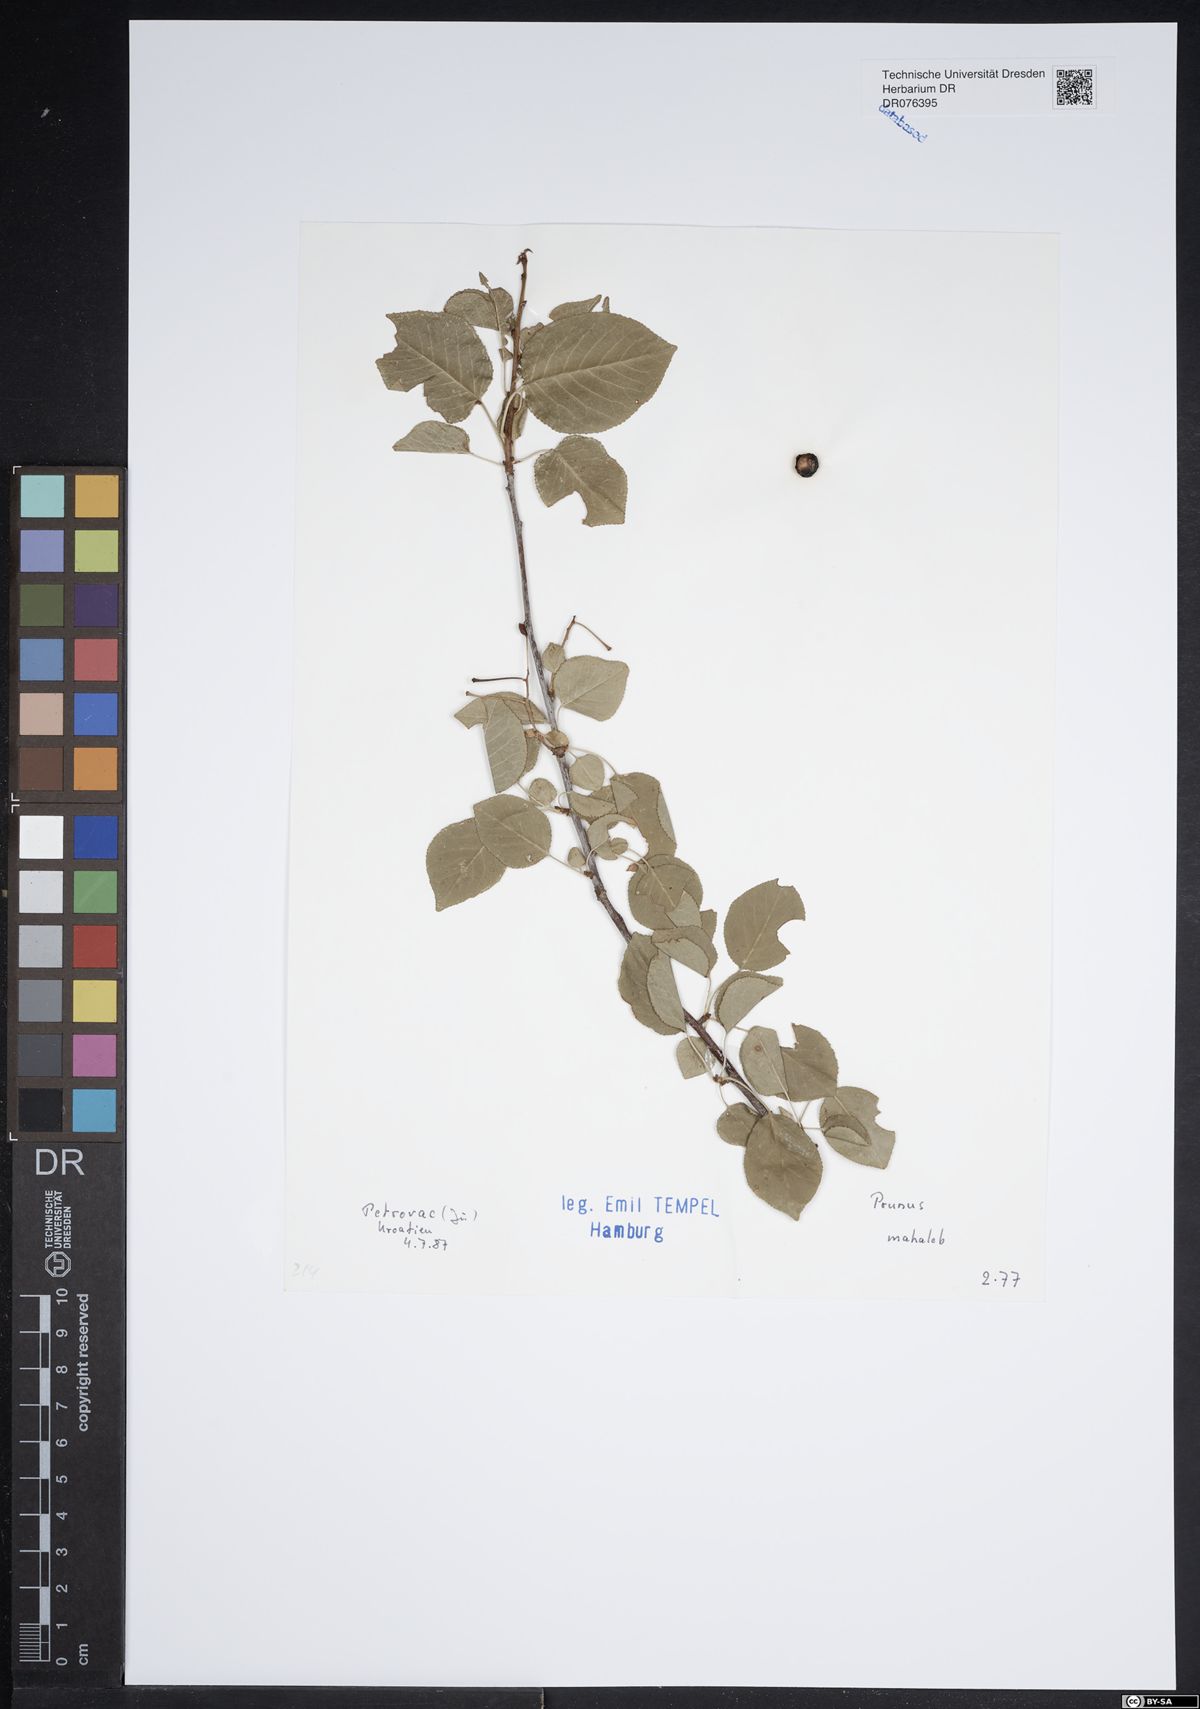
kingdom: Plantae
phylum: Tracheophyta
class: Magnoliopsida
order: Rosales
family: Rosaceae
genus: Prunus
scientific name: Prunus mahaleb
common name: Mahaleb cherry
